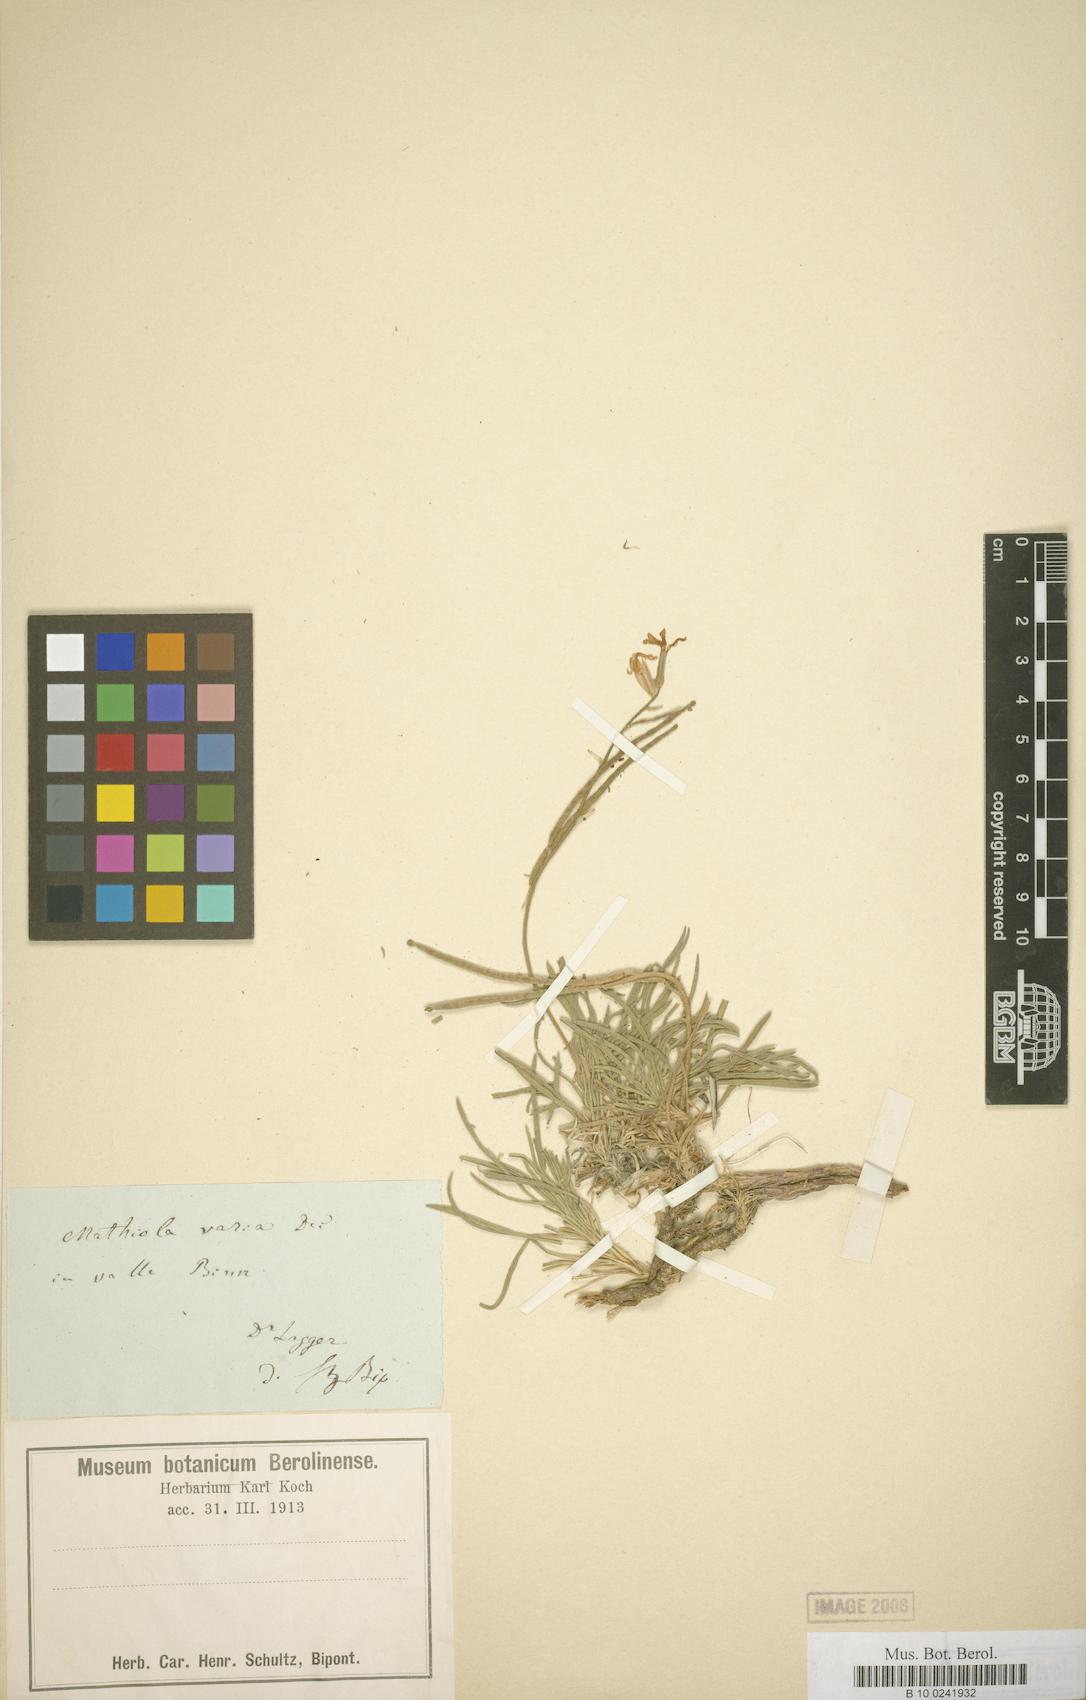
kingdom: Plantae
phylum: Tracheophyta
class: Magnoliopsida
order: Brassicales
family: Brassicaceae
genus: Matthiola
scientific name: Matthiola fruticulosa
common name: Sad stock
